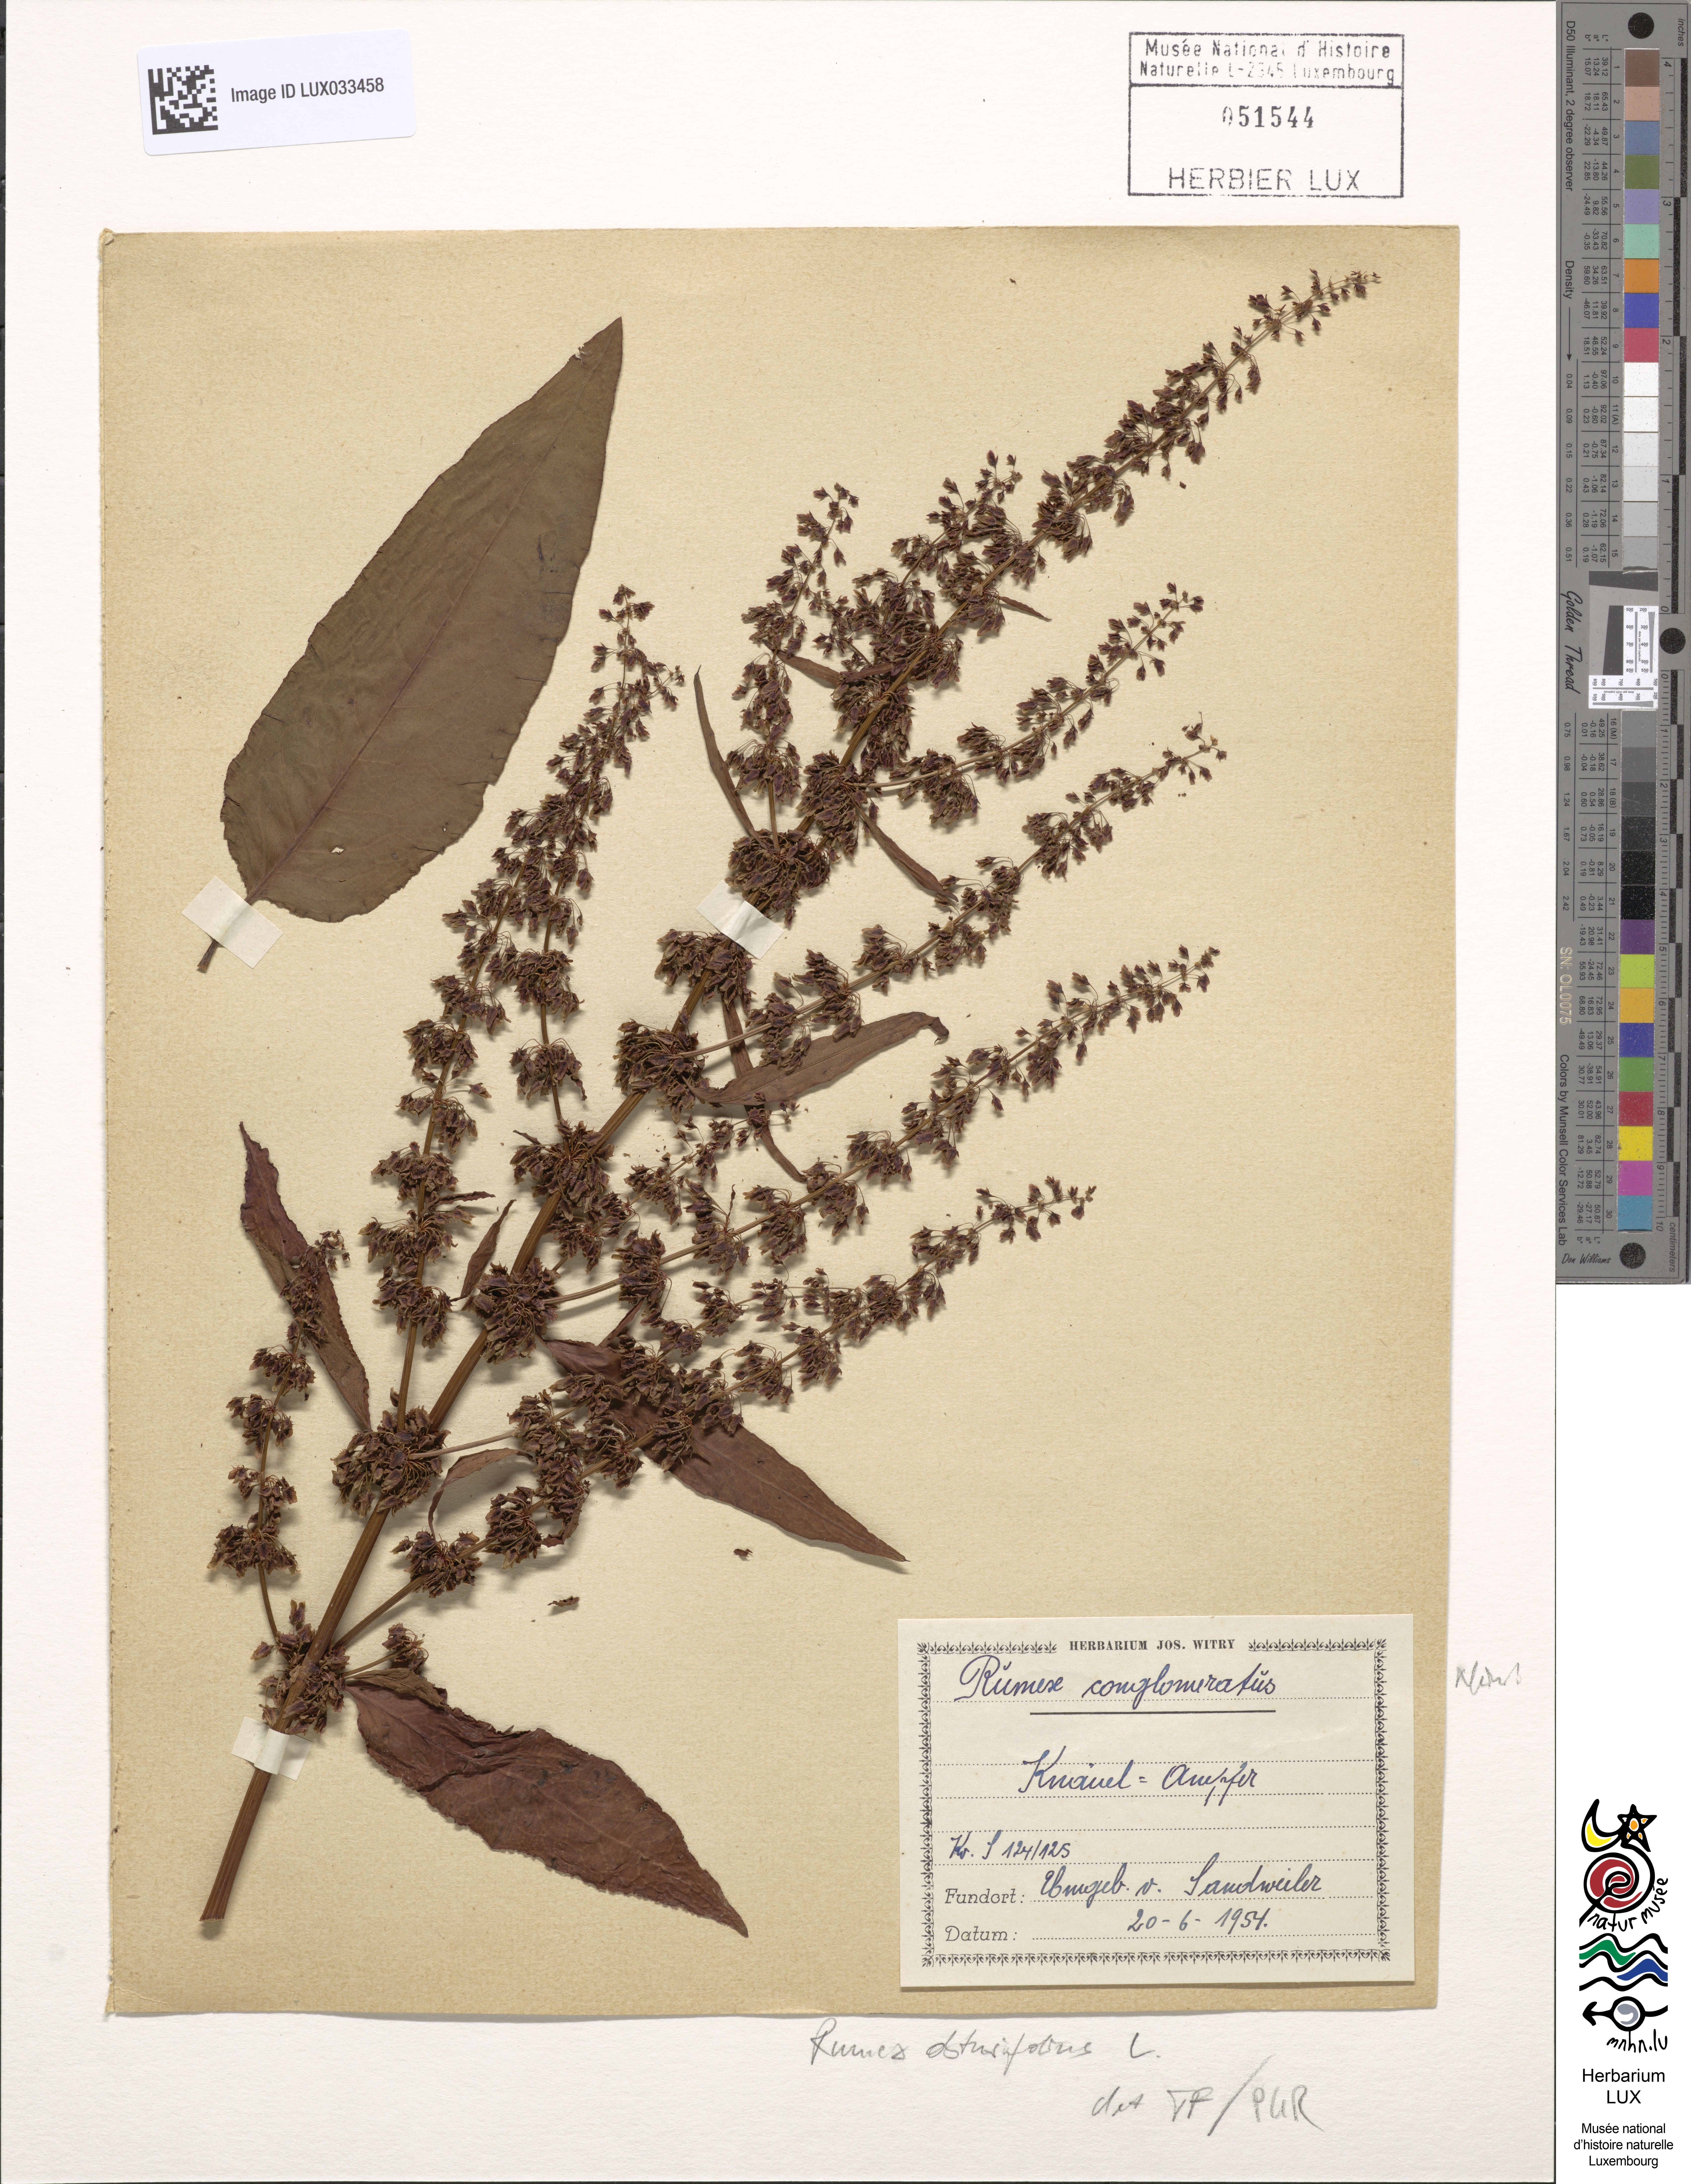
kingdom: Plantae
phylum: Tracheophyta
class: Magnoliopsida
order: Caryophyllales
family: Polygonaceae
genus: Rumex
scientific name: Rumex obtusifolius
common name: Bitter dock
